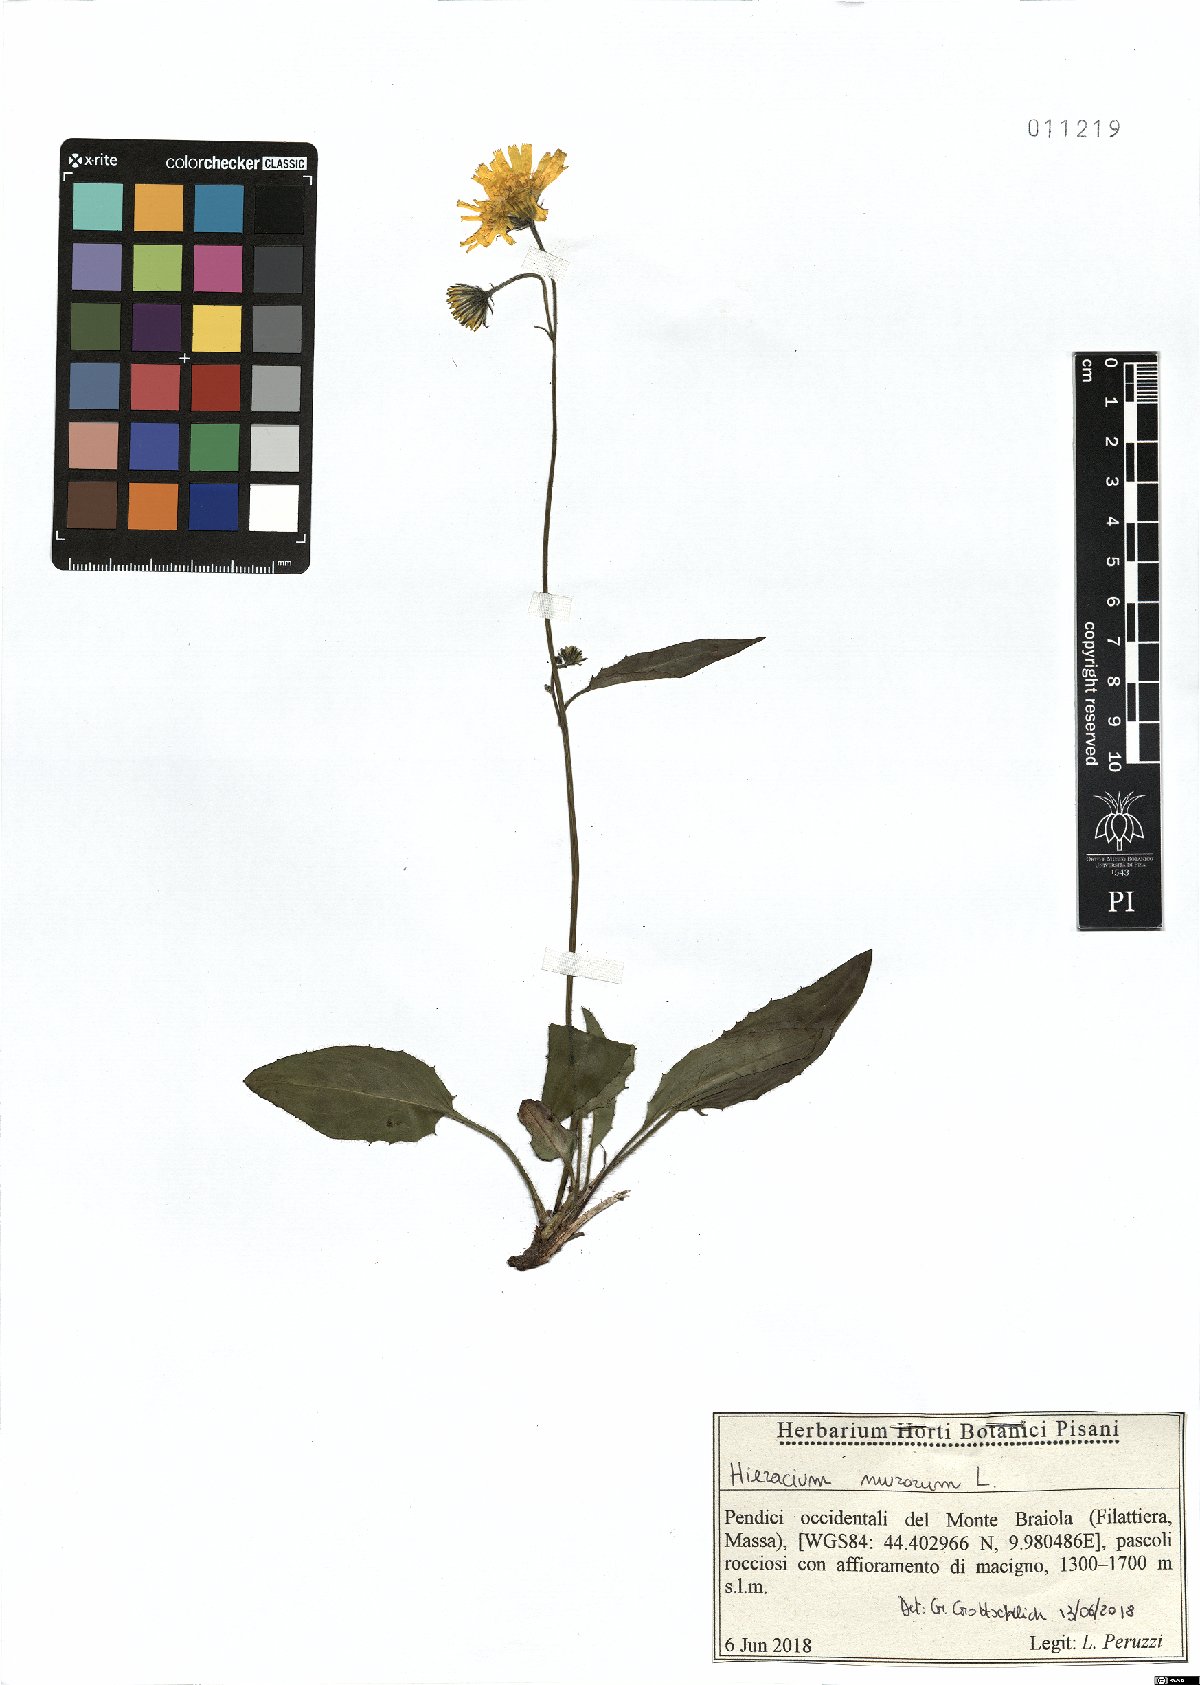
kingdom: Plantae
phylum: Tracheophyta
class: Magnoliopsida
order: Asterales
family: Asteraceae
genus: Hieracium
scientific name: Hieracium murorum
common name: Wall hawkweed
